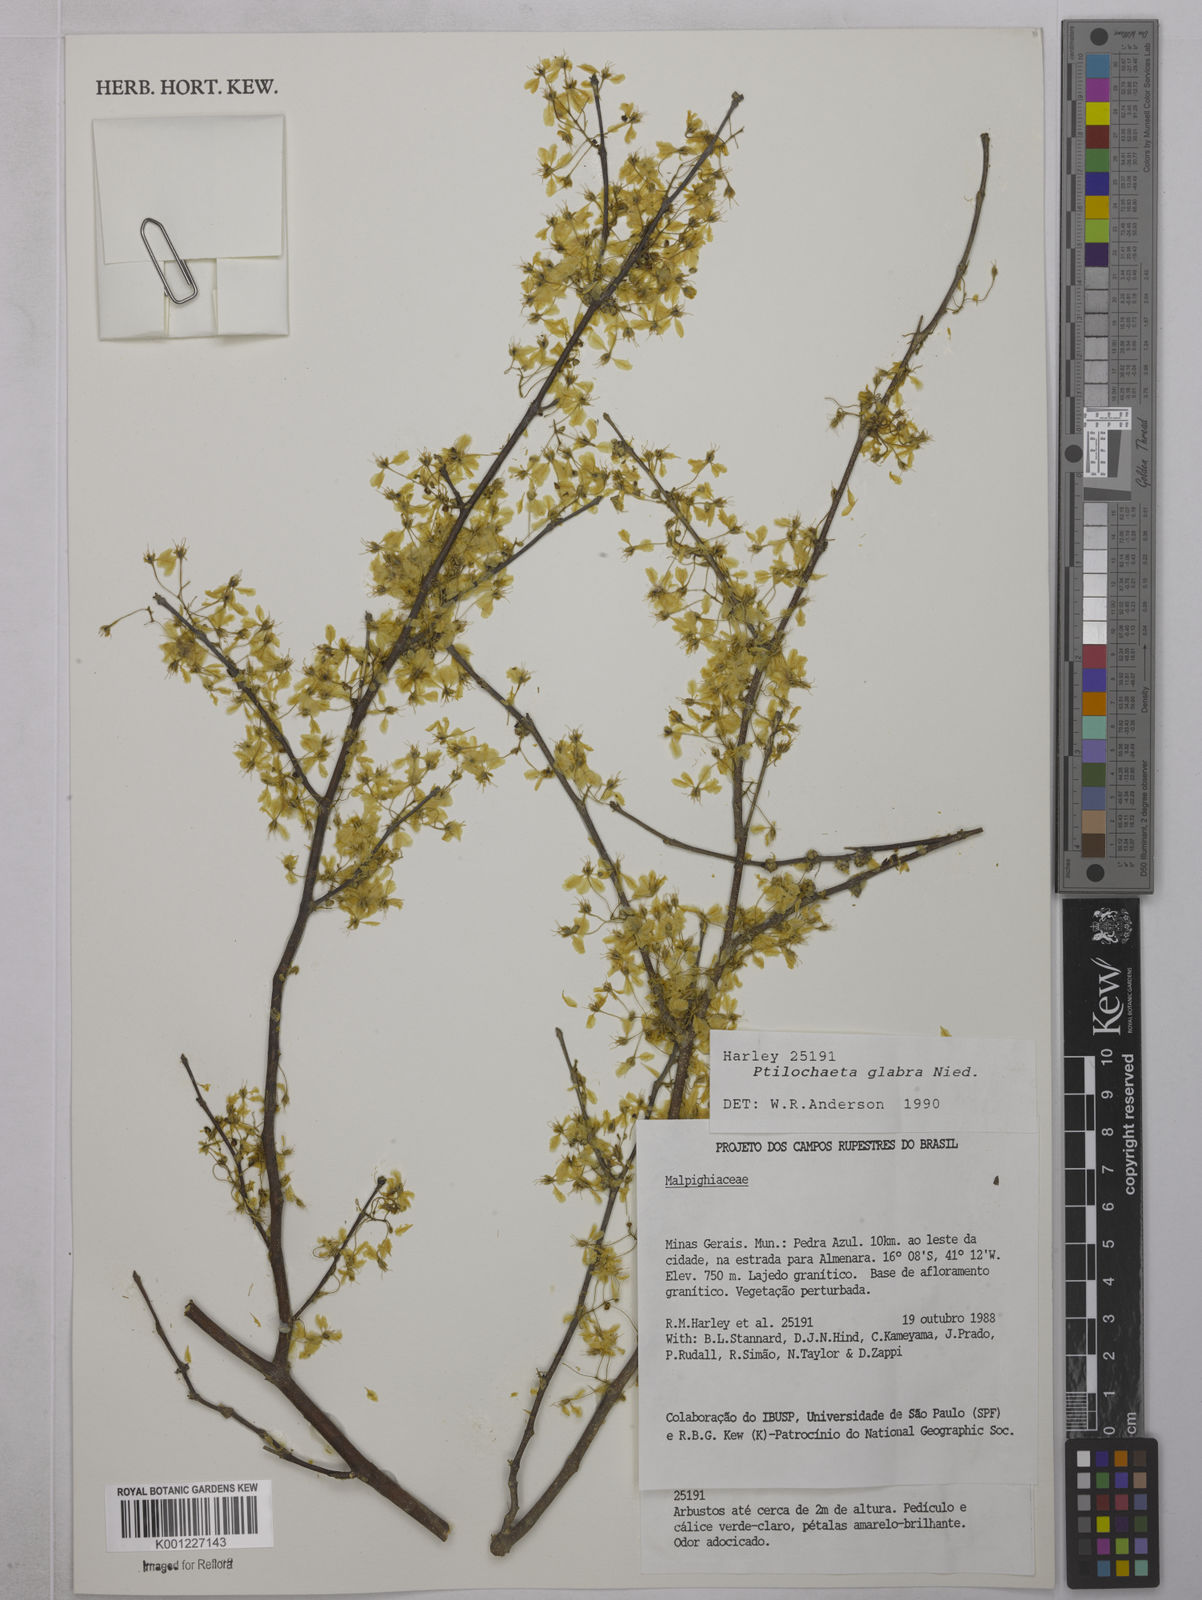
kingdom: Plantae
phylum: Tracheophyta
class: Magnoliopsida
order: Malpighiales
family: Malpighiaceae
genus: Ptilochaeta
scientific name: Ptilochaeta glabra
